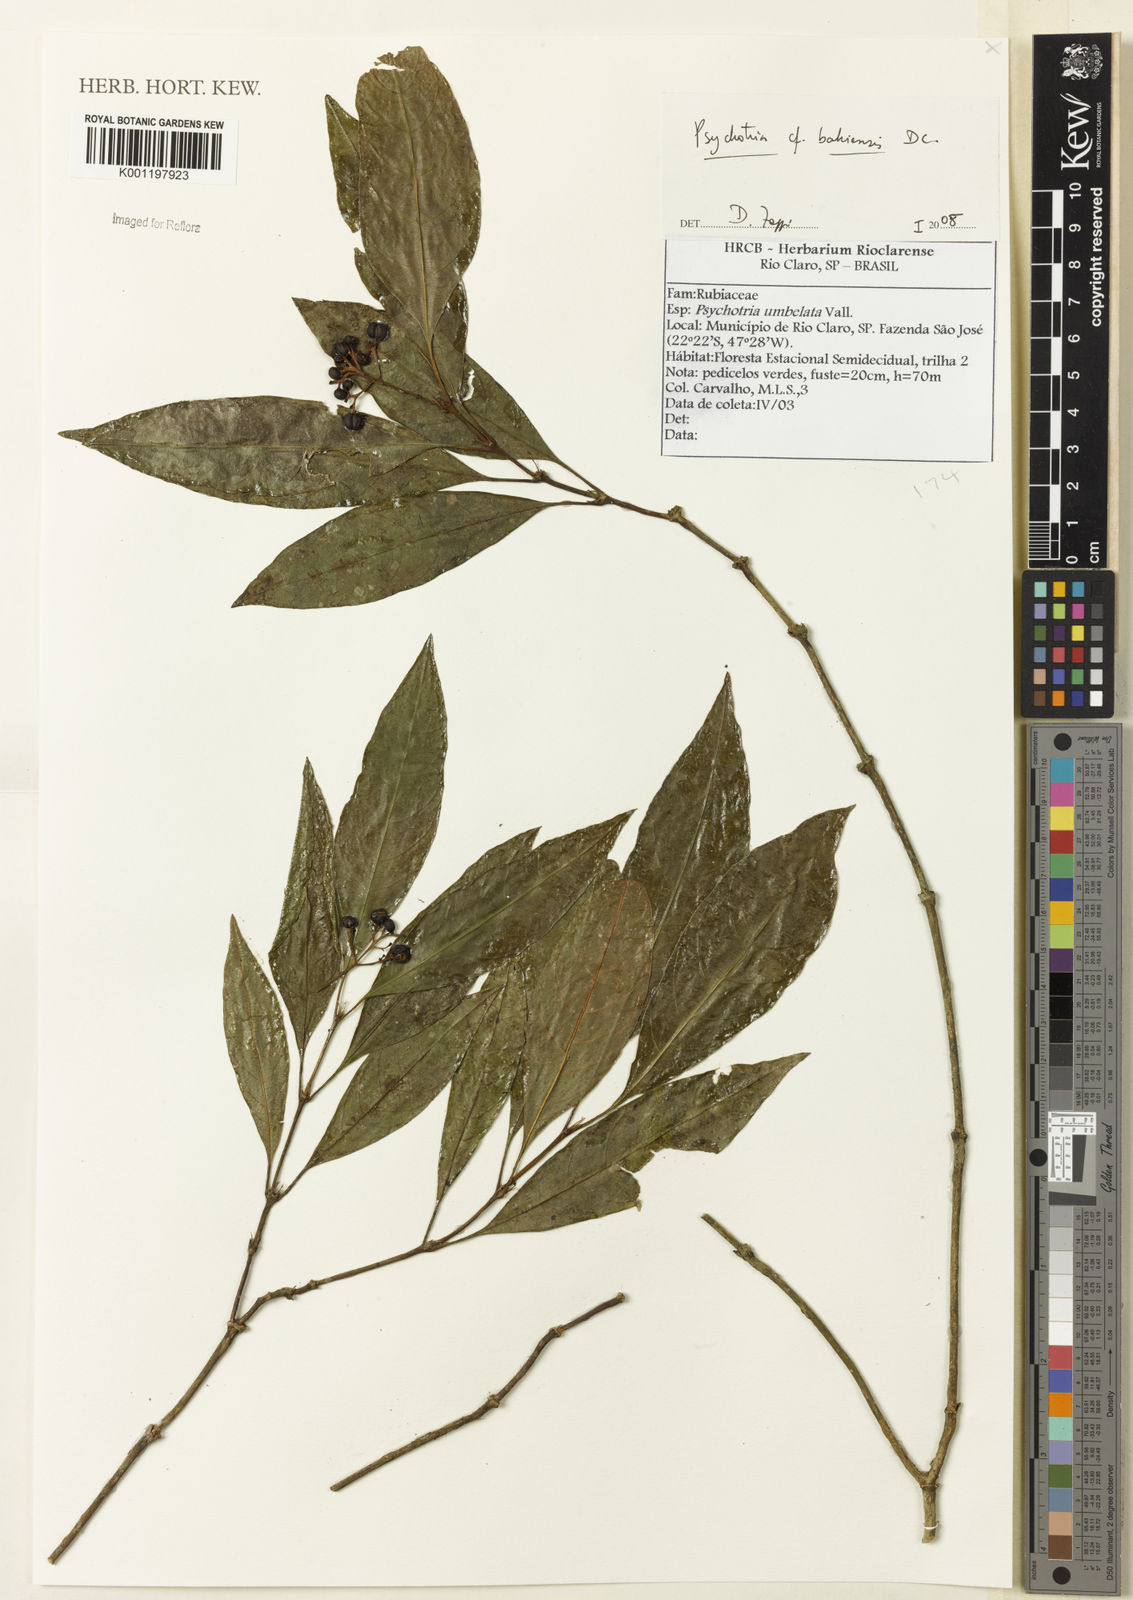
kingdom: Plantae
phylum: Tracheophyta
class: Magnoliopsida
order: Gentianales
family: Rubiaceae
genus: Psychotria
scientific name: Psychotria bahiensis
